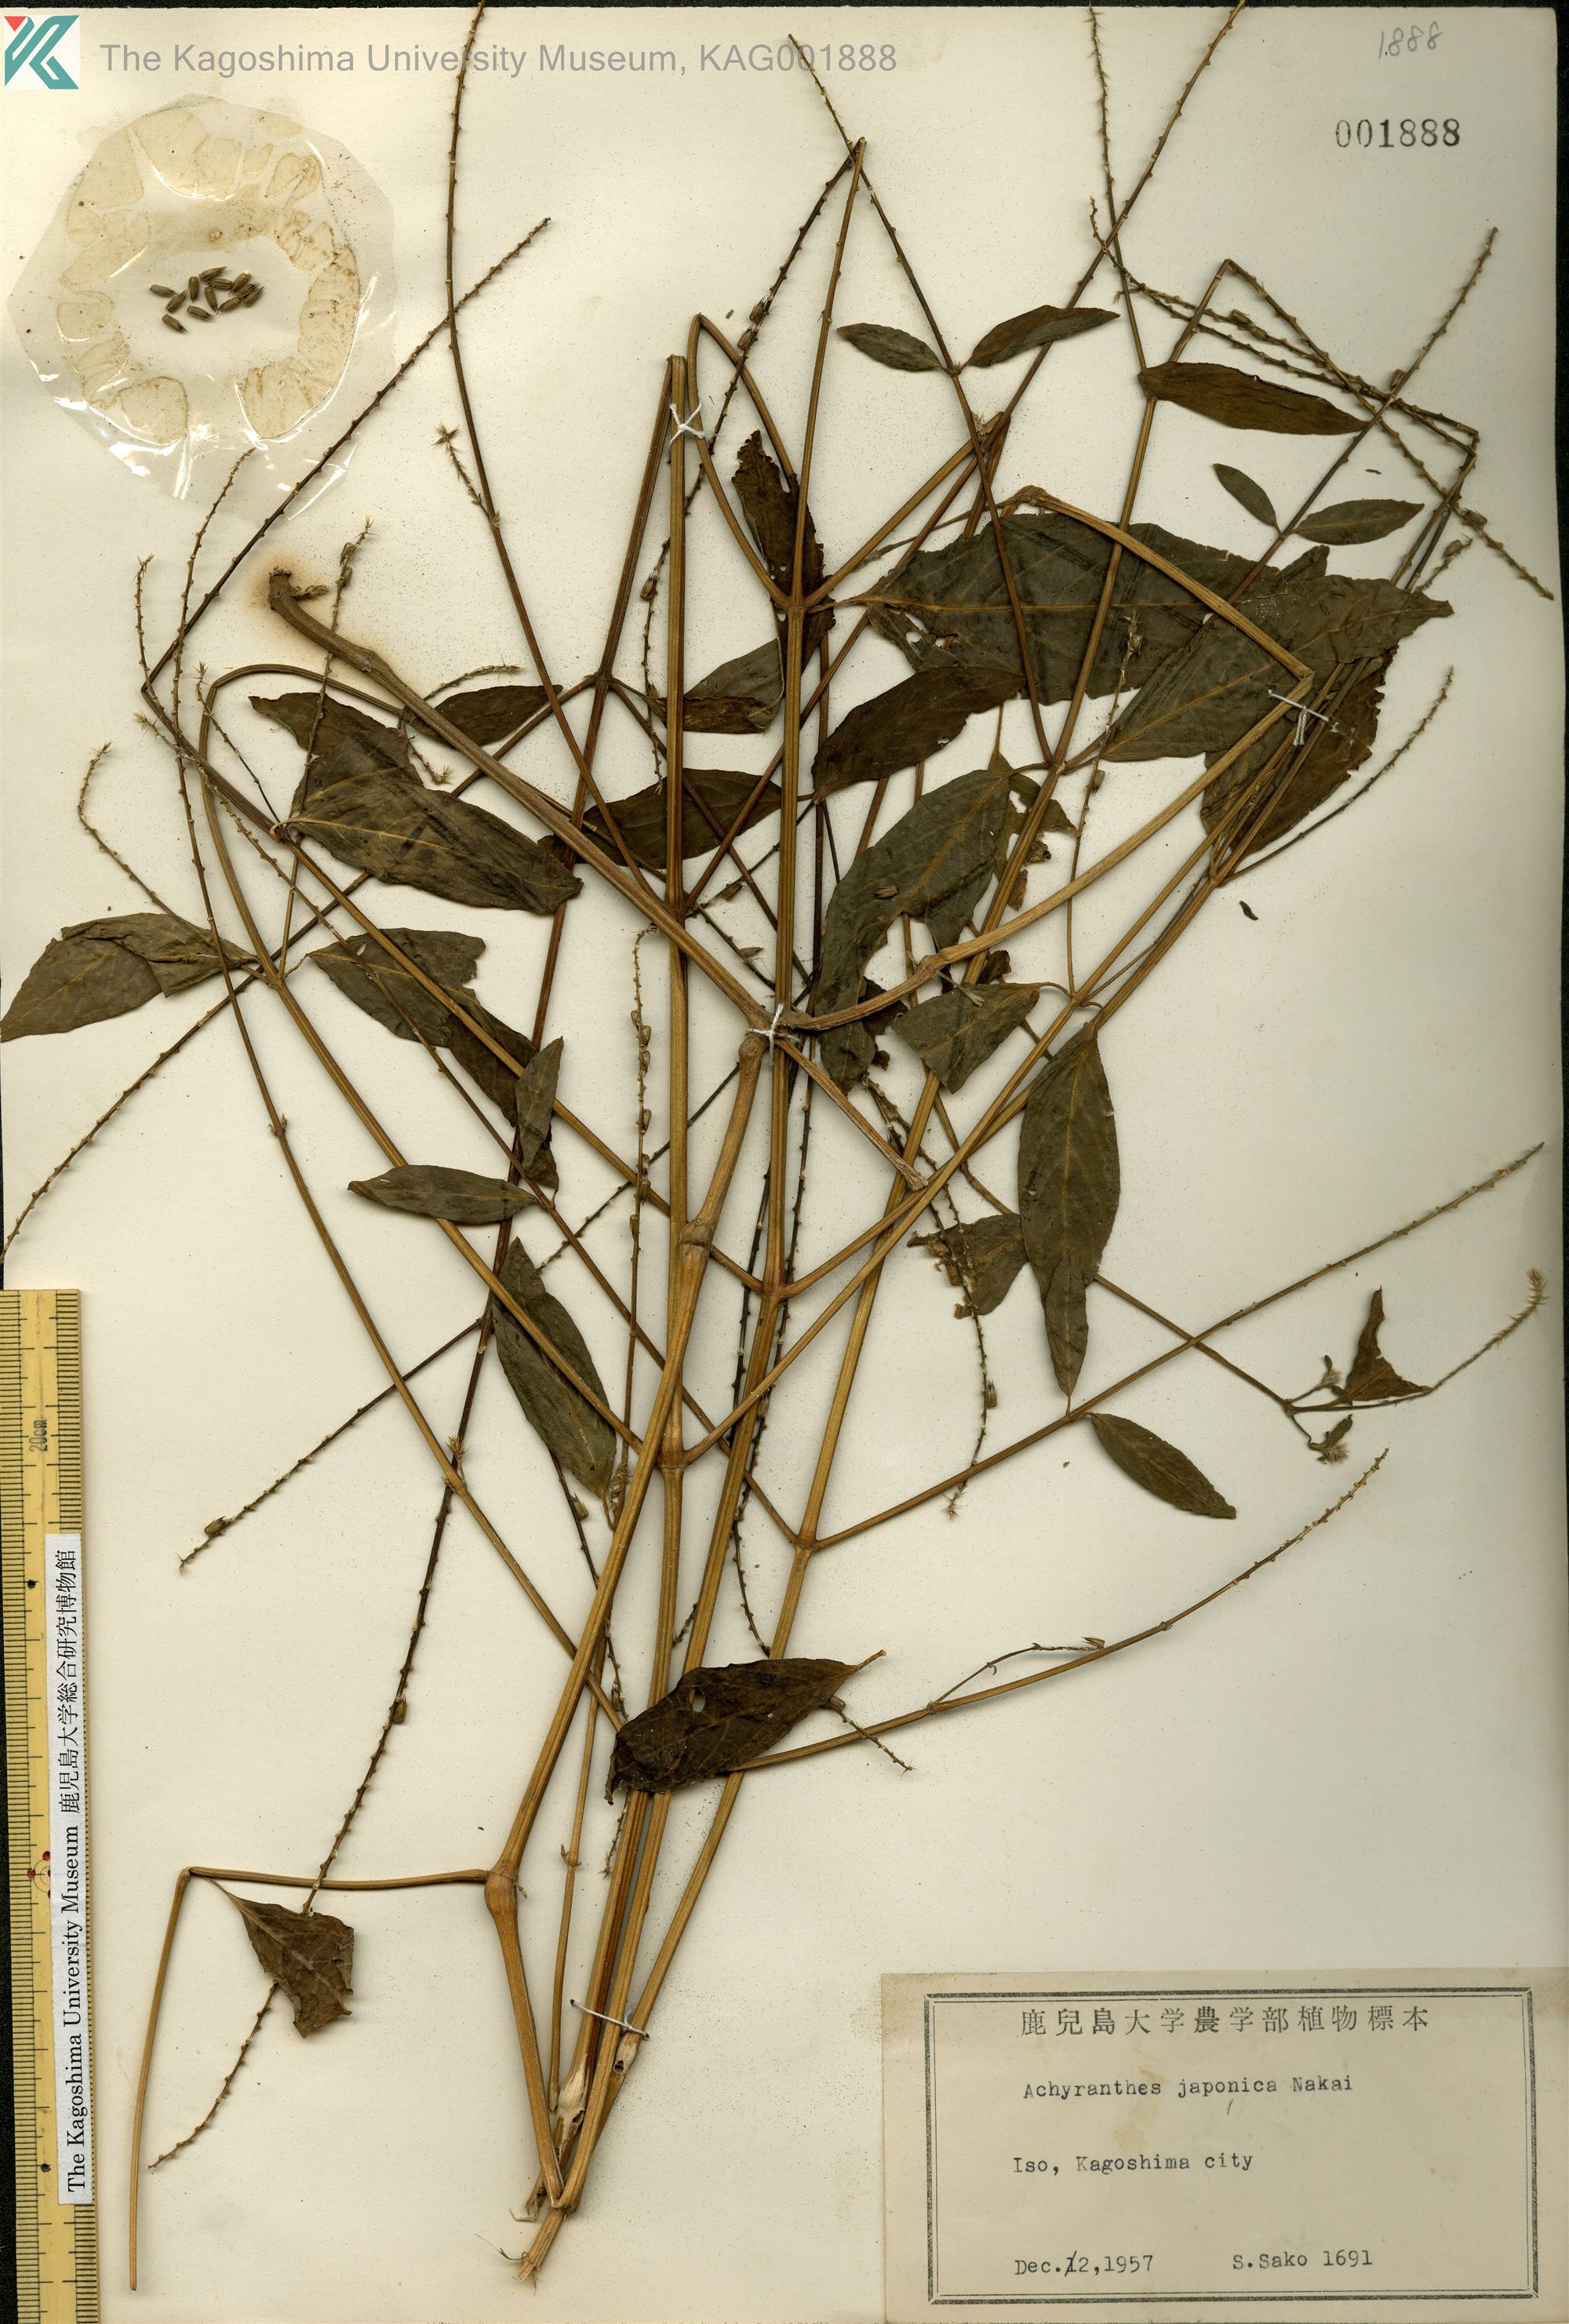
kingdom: Plantae
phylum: Tracheophyta
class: Magnoliopsida
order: Caryophyllales
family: Amaranthaceae
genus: Achyranthes
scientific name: Achyranthes bidentata
